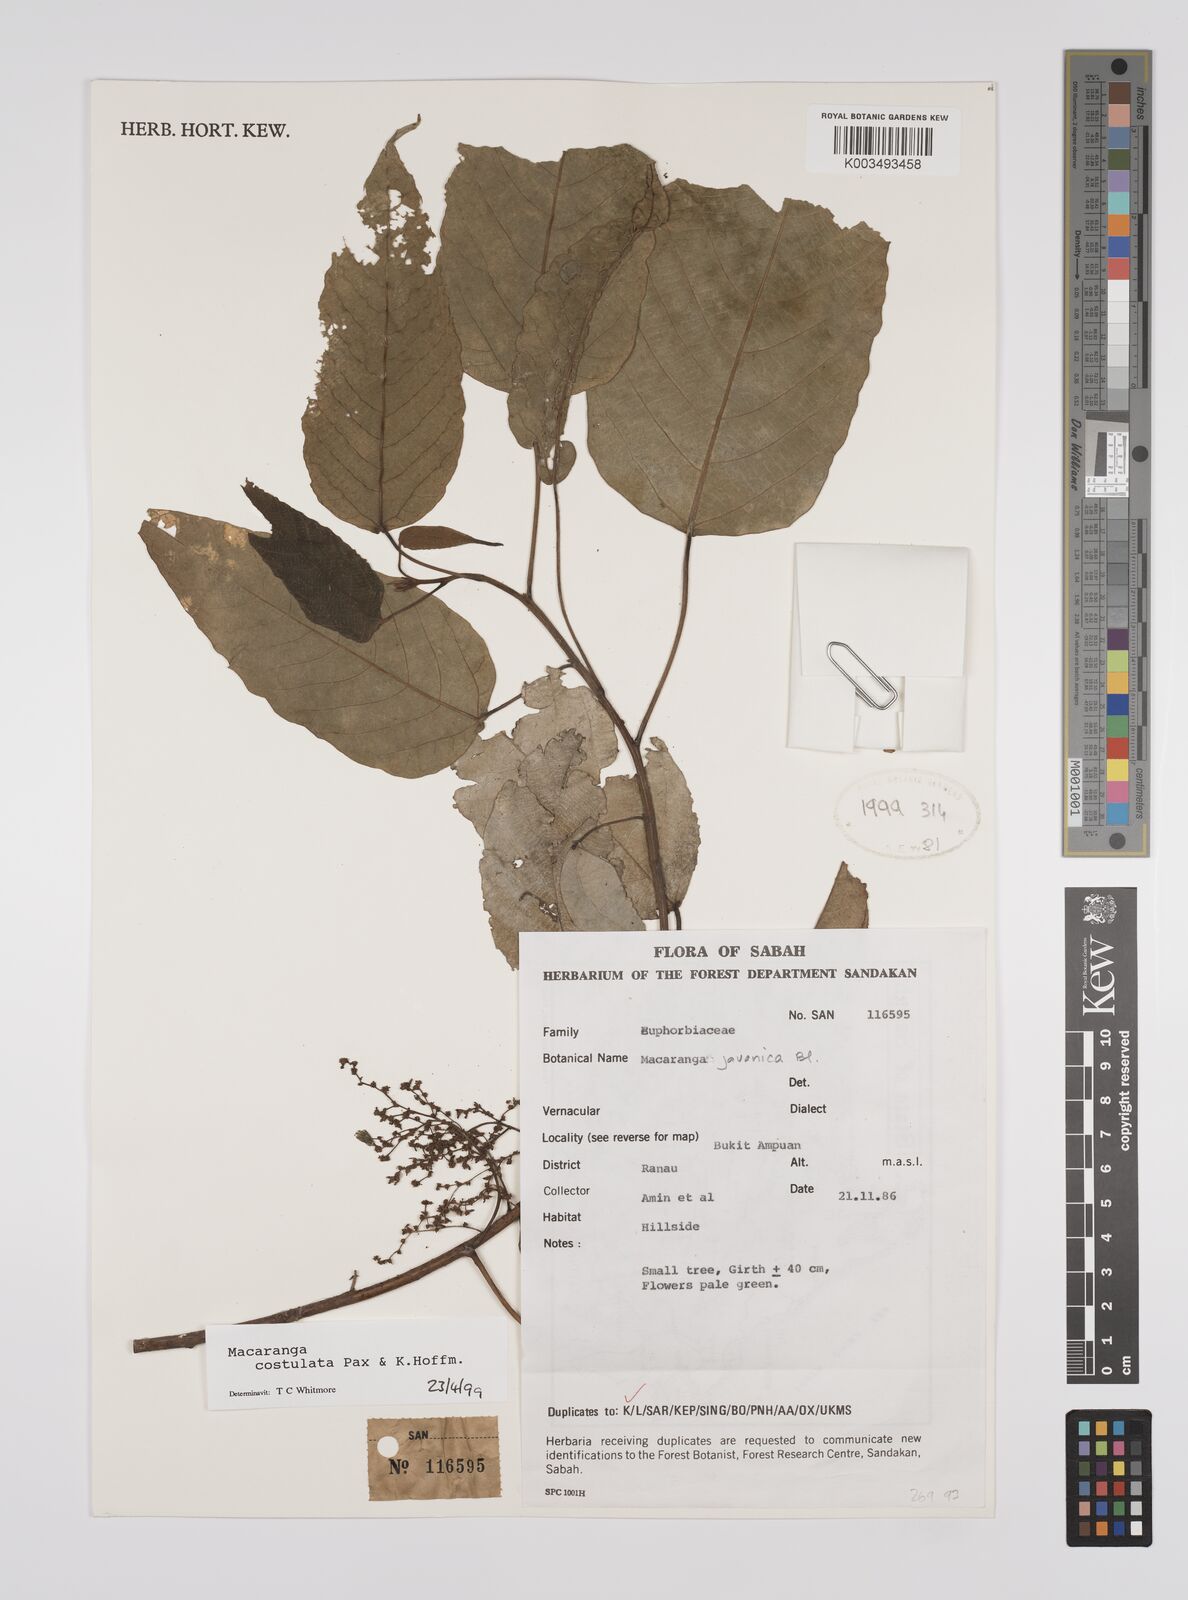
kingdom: Plantae
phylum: Tracheophyta
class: Magnoliopsida
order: Malpighiales
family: Euphorbiaceae
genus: Macaranga
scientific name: Macaranga costulata
